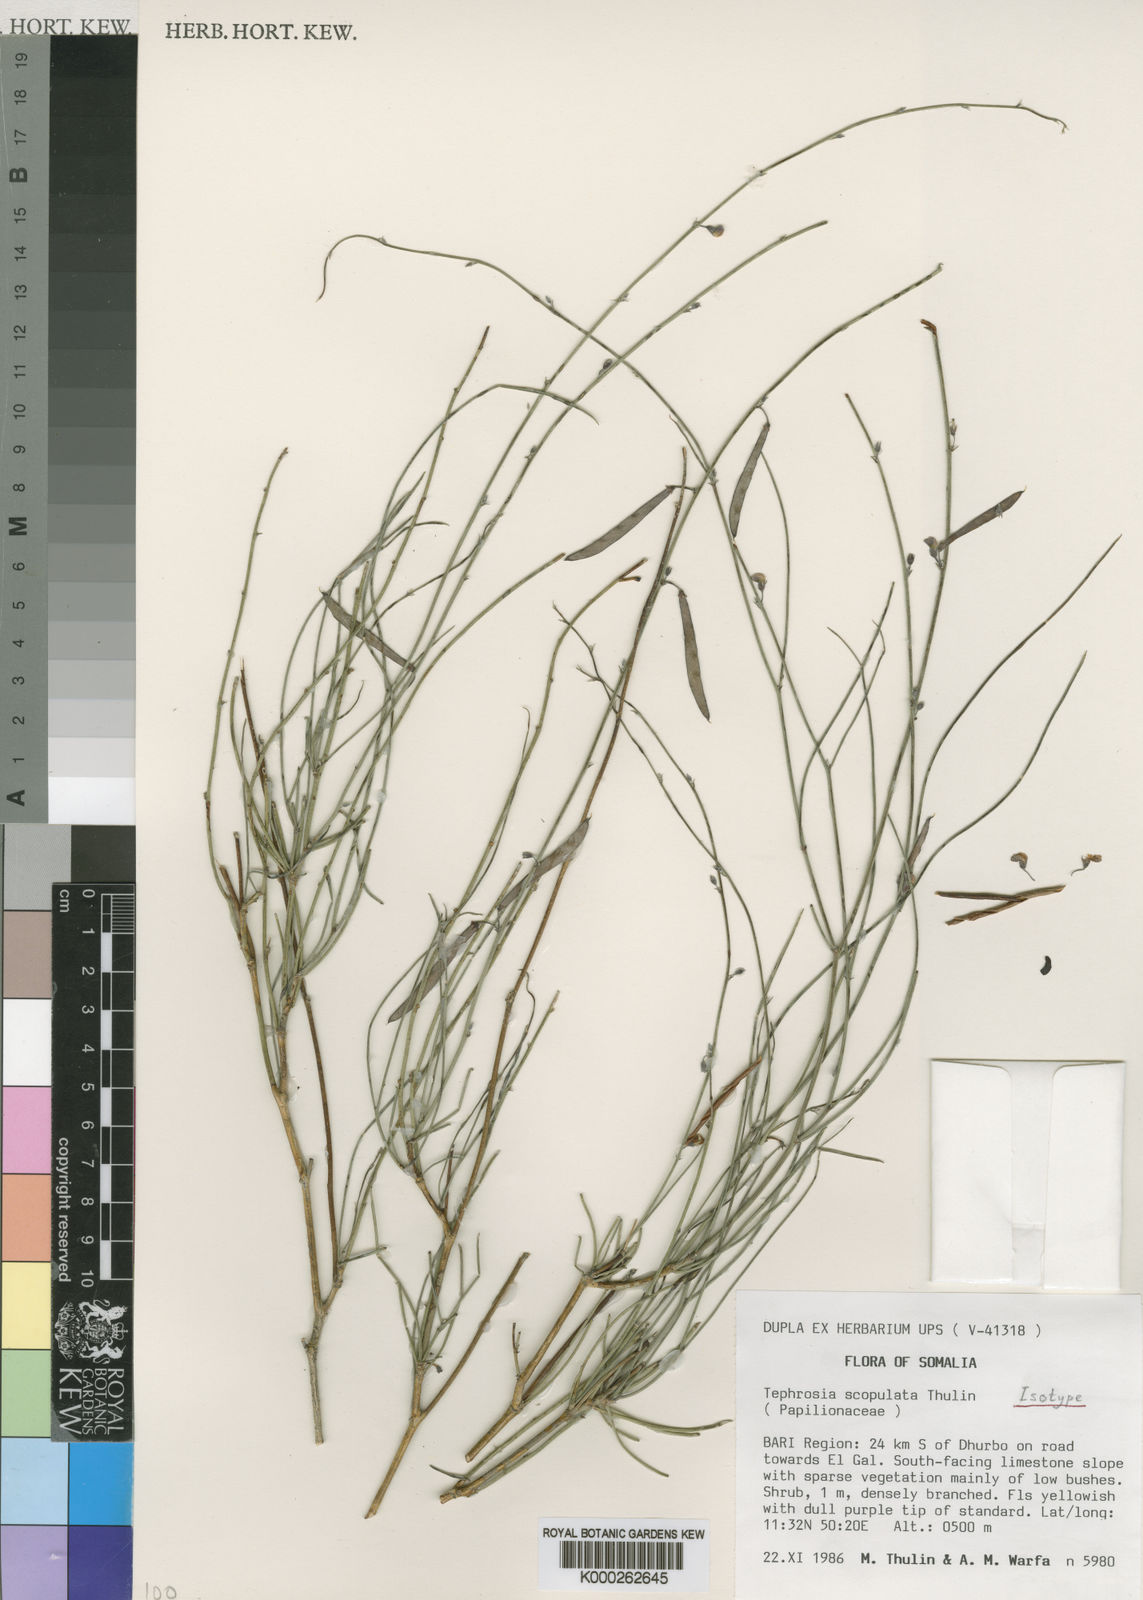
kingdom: Plantae
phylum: Tracheophyta
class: Magnoliopsida
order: Fabales
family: Fabaceae
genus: Tephrosia
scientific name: Tephrosia scopulata
